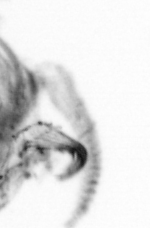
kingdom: Animalia
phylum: Arthropoda
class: Copepoda
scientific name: Copepoda
